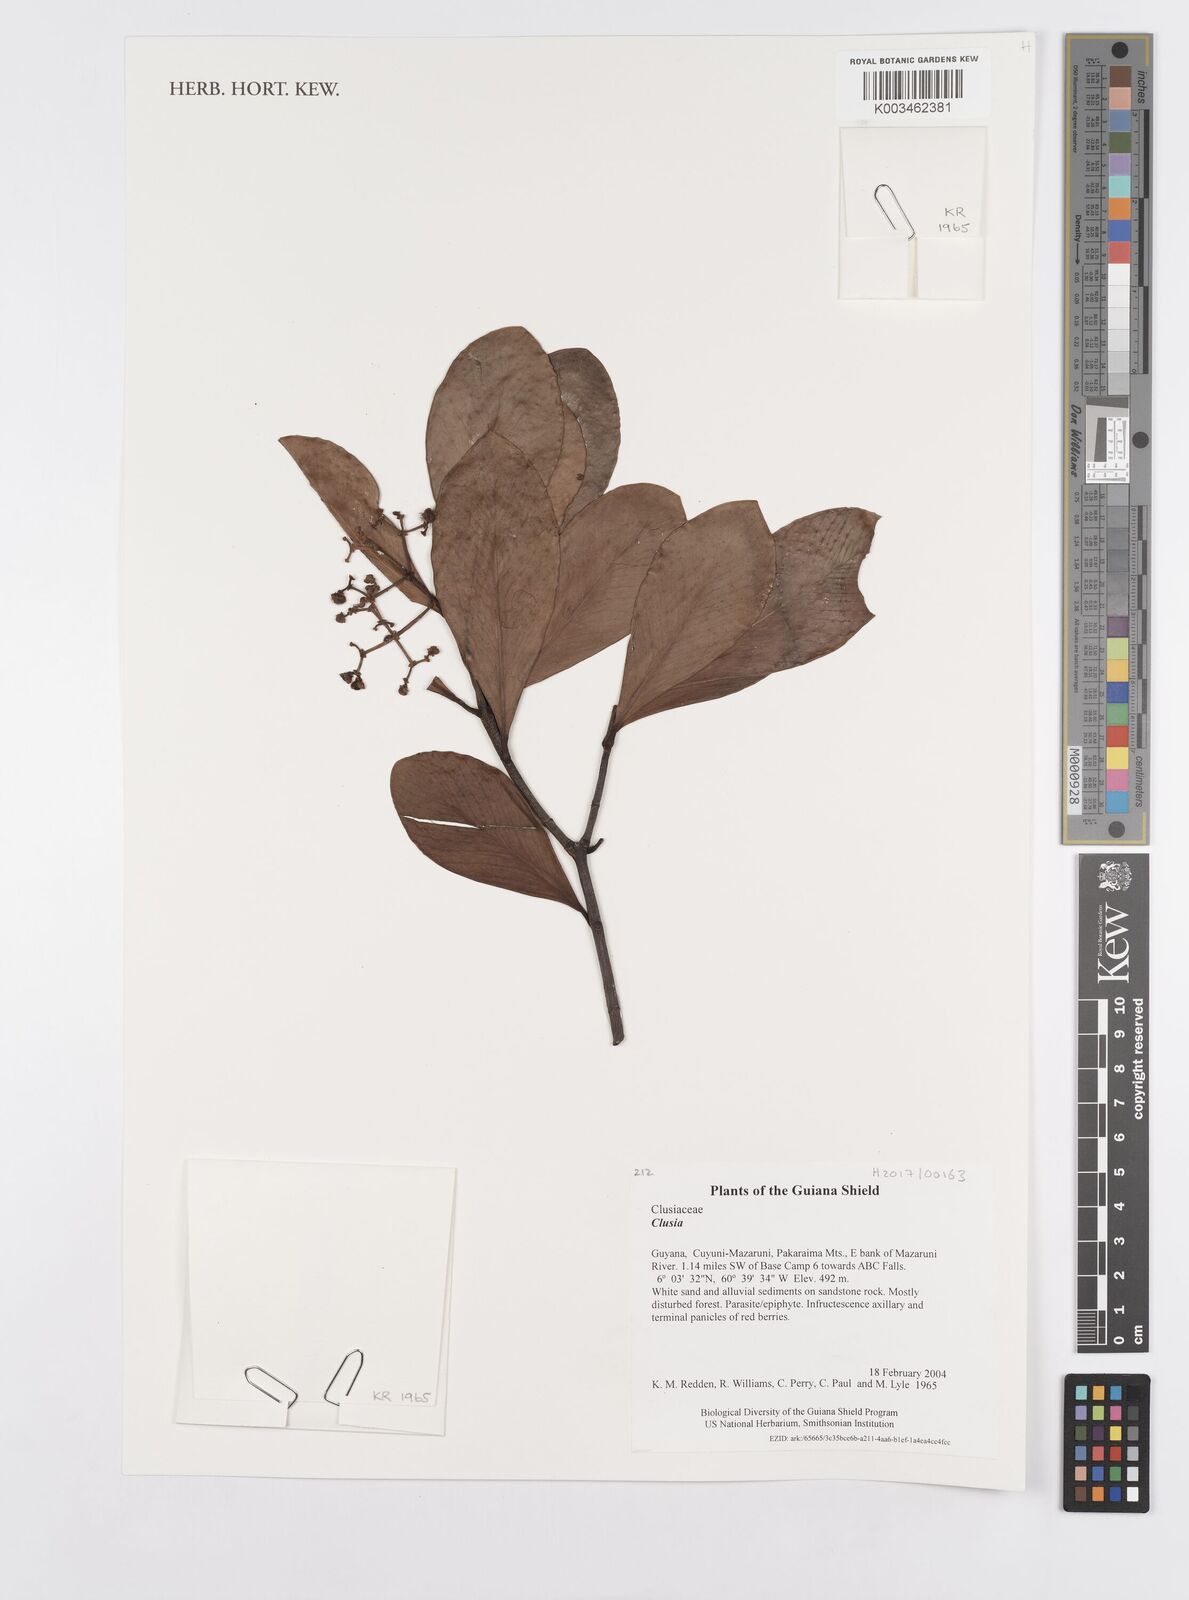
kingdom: Plantae
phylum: Tracheophyta
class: Magnoliopsida
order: Malpighiales
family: Clusiaceae
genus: Clusia
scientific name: Clusia
